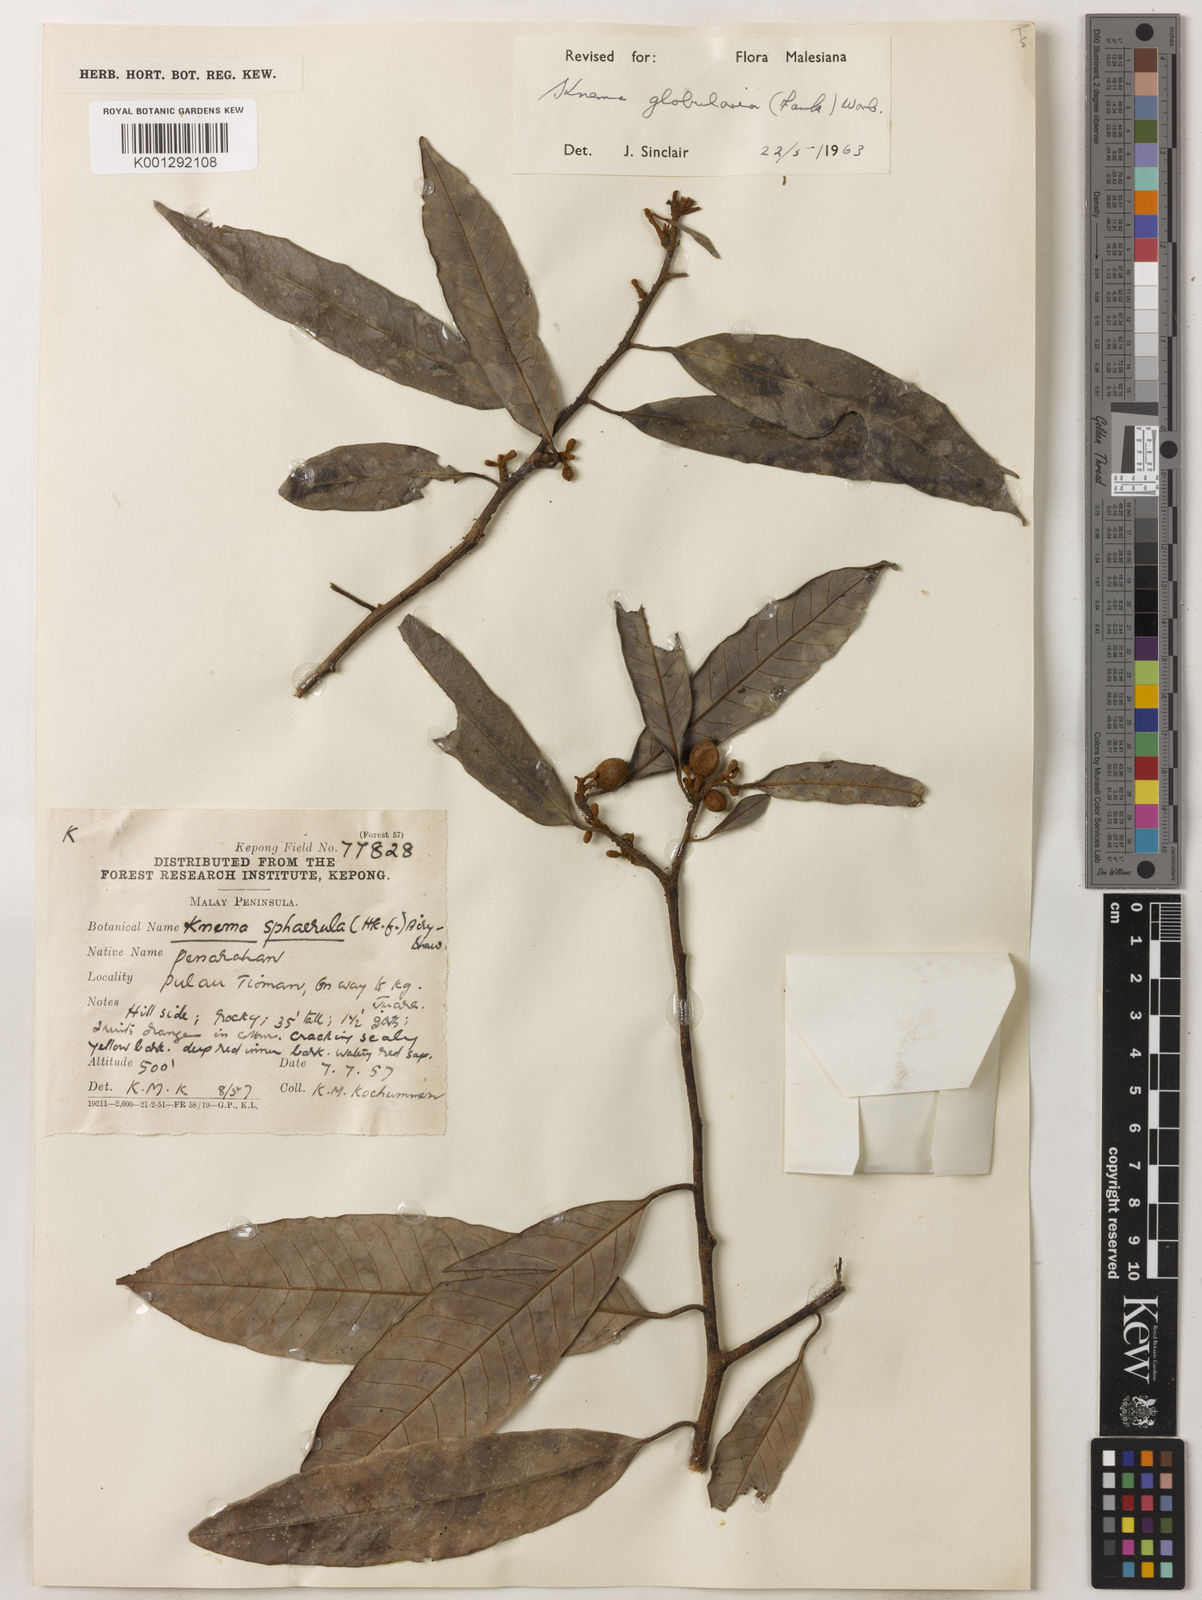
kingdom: Plantae
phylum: Tracheophyta
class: Magnoliopsida
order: Magnoliales
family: Myristicaceae
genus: Knema
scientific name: Knema globularia
